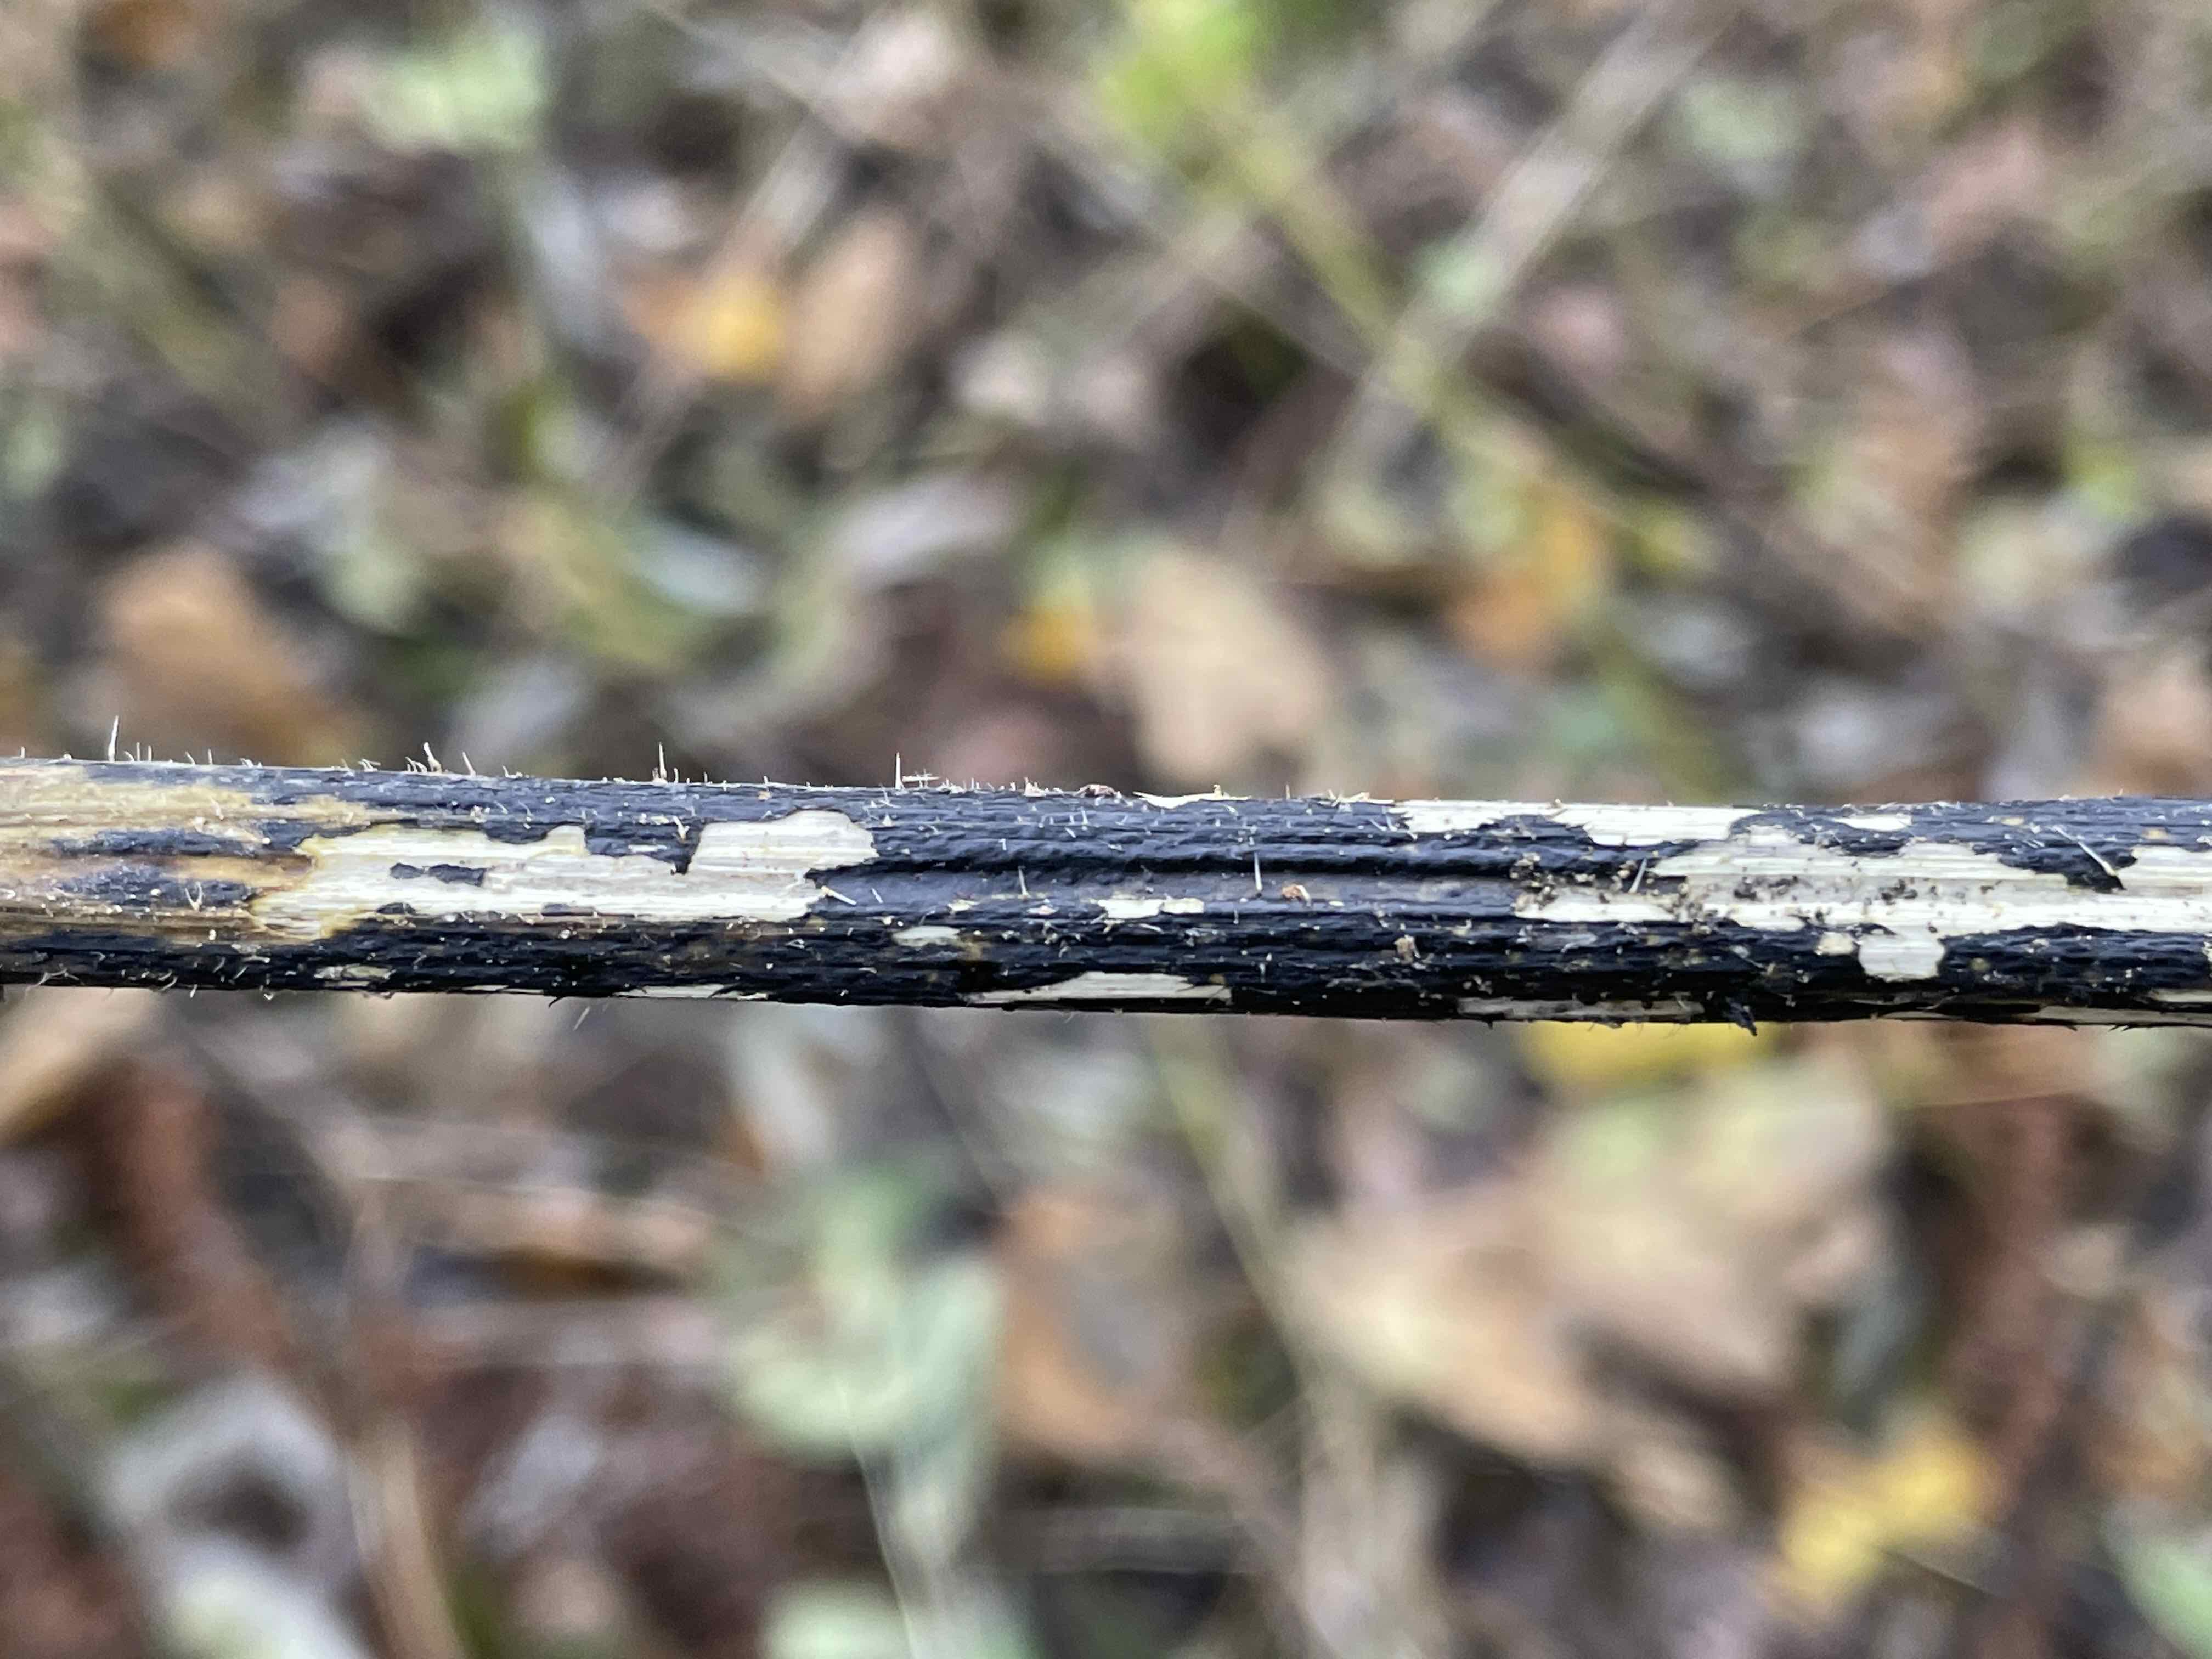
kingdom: Fungi
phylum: Ascomycota
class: Sordariomycetes
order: Diaporthales
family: Diaporthaceae
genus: Diaporthopsis
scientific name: Diaporthopsis urticae
